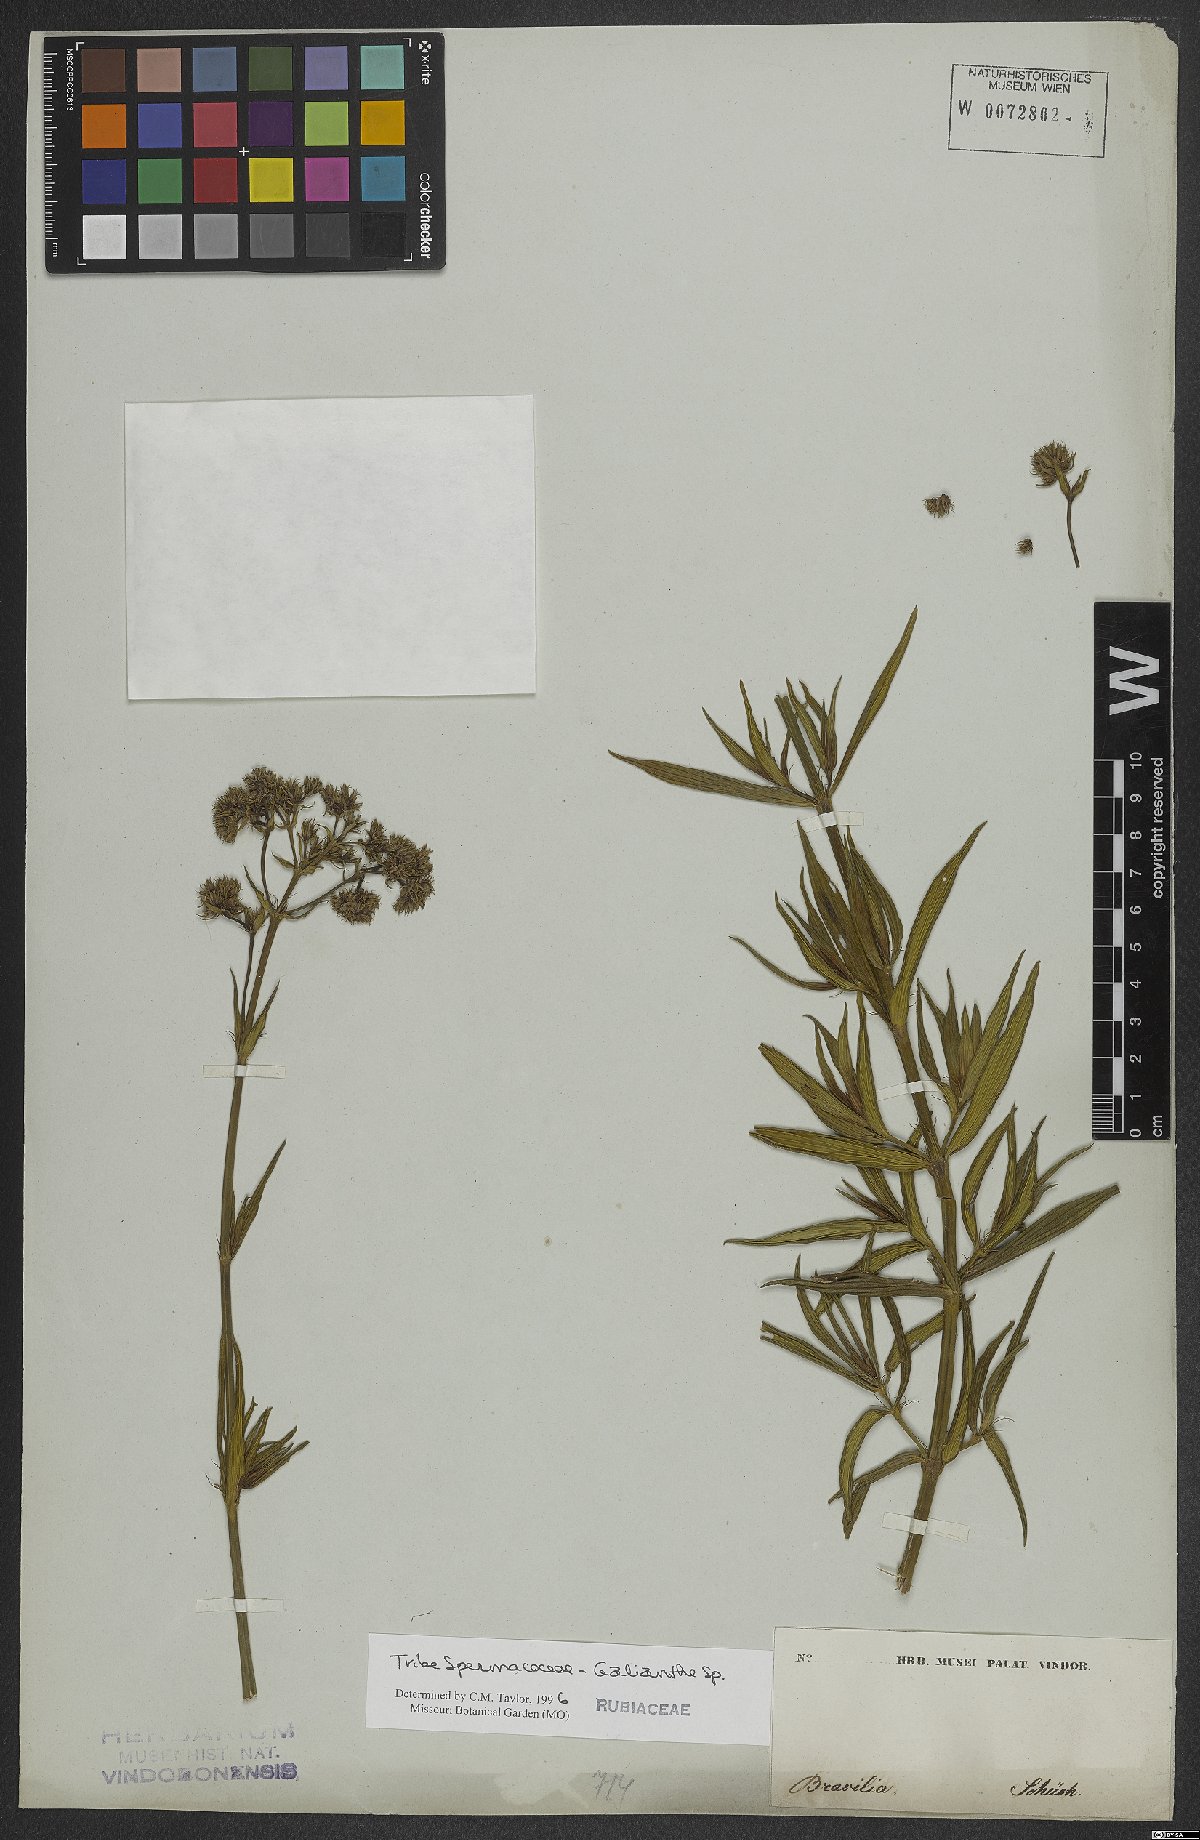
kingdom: Plantae
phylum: Tracheophyta
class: Magnoliopsida
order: Gentianales
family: Rubiaceae
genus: Spermacoce
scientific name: Spermacoce
